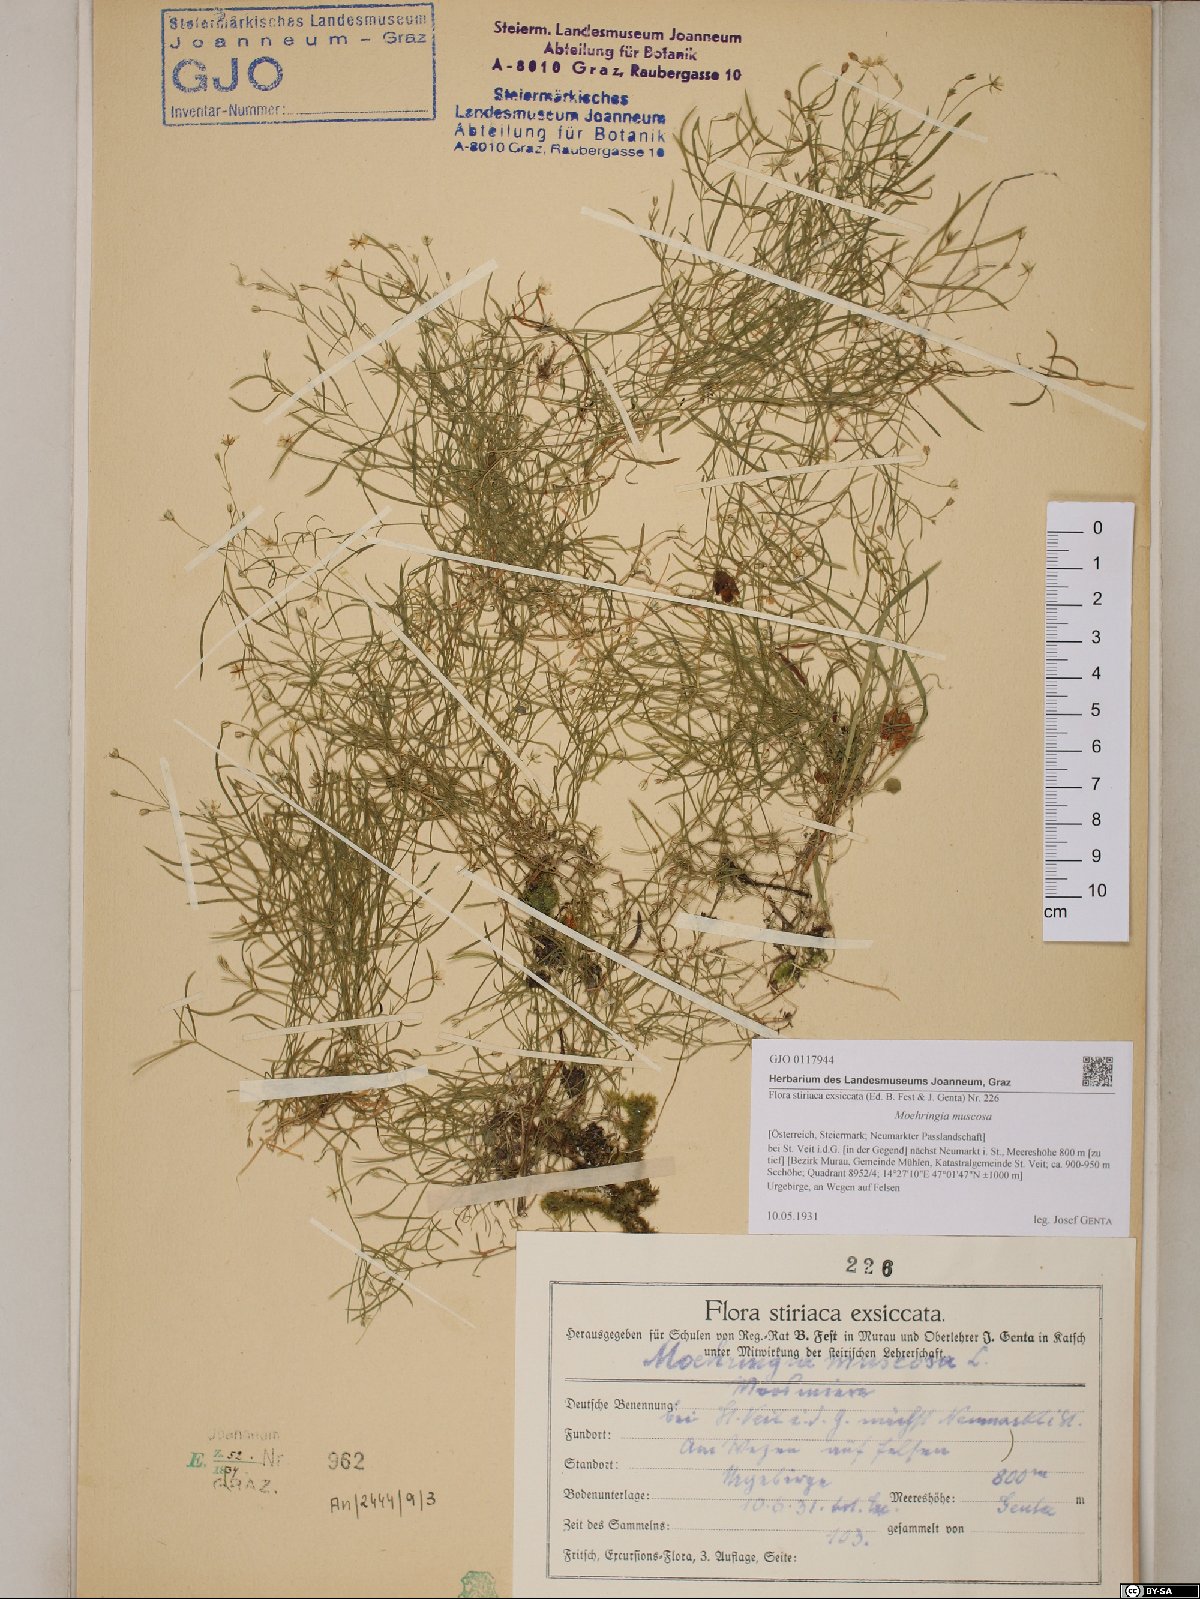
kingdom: Plantae
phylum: Tracheophyta
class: Magnoliopsida
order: Caryophyllales
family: Caryophyllaceae
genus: Moehringia
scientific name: Moehringia muscosa
